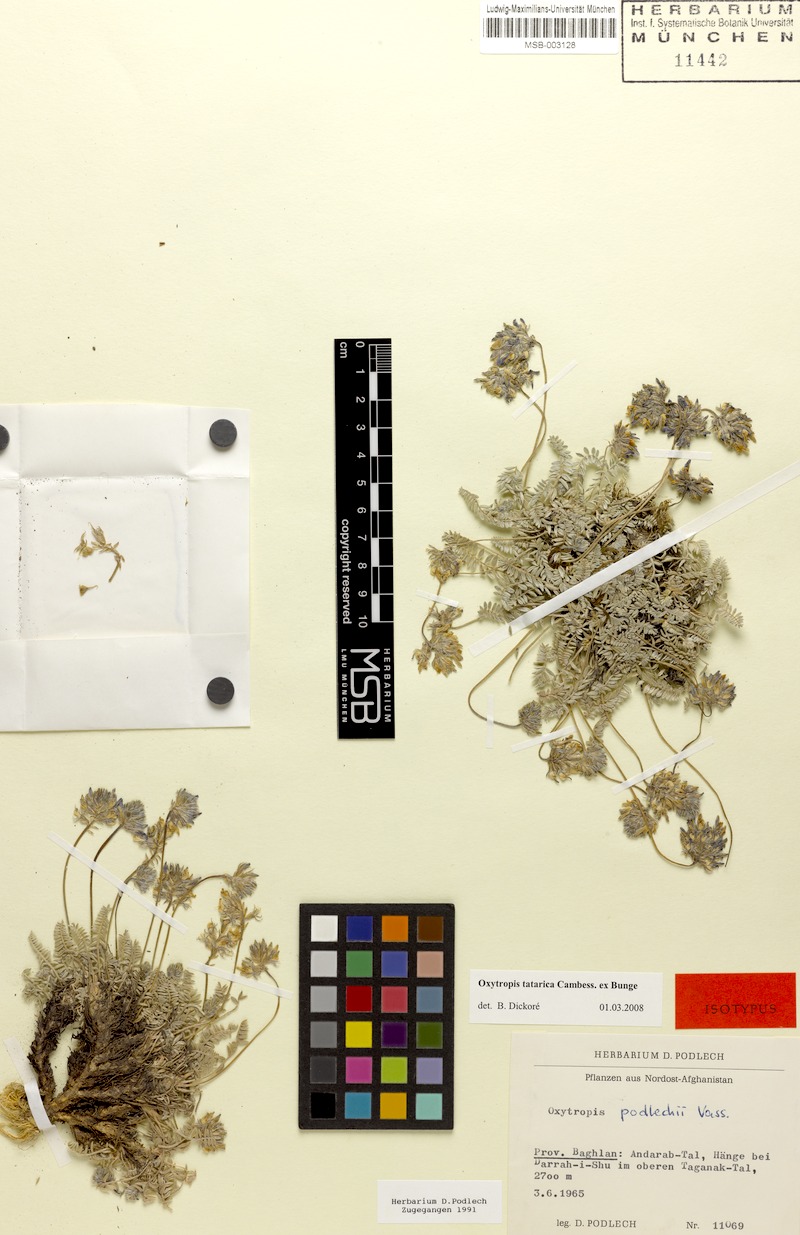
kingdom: Plantae
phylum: Tracheophyta
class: Magnoliopsida
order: Fabales
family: Fabaceae
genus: Oxytropis
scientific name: Oxytropis griffithii
